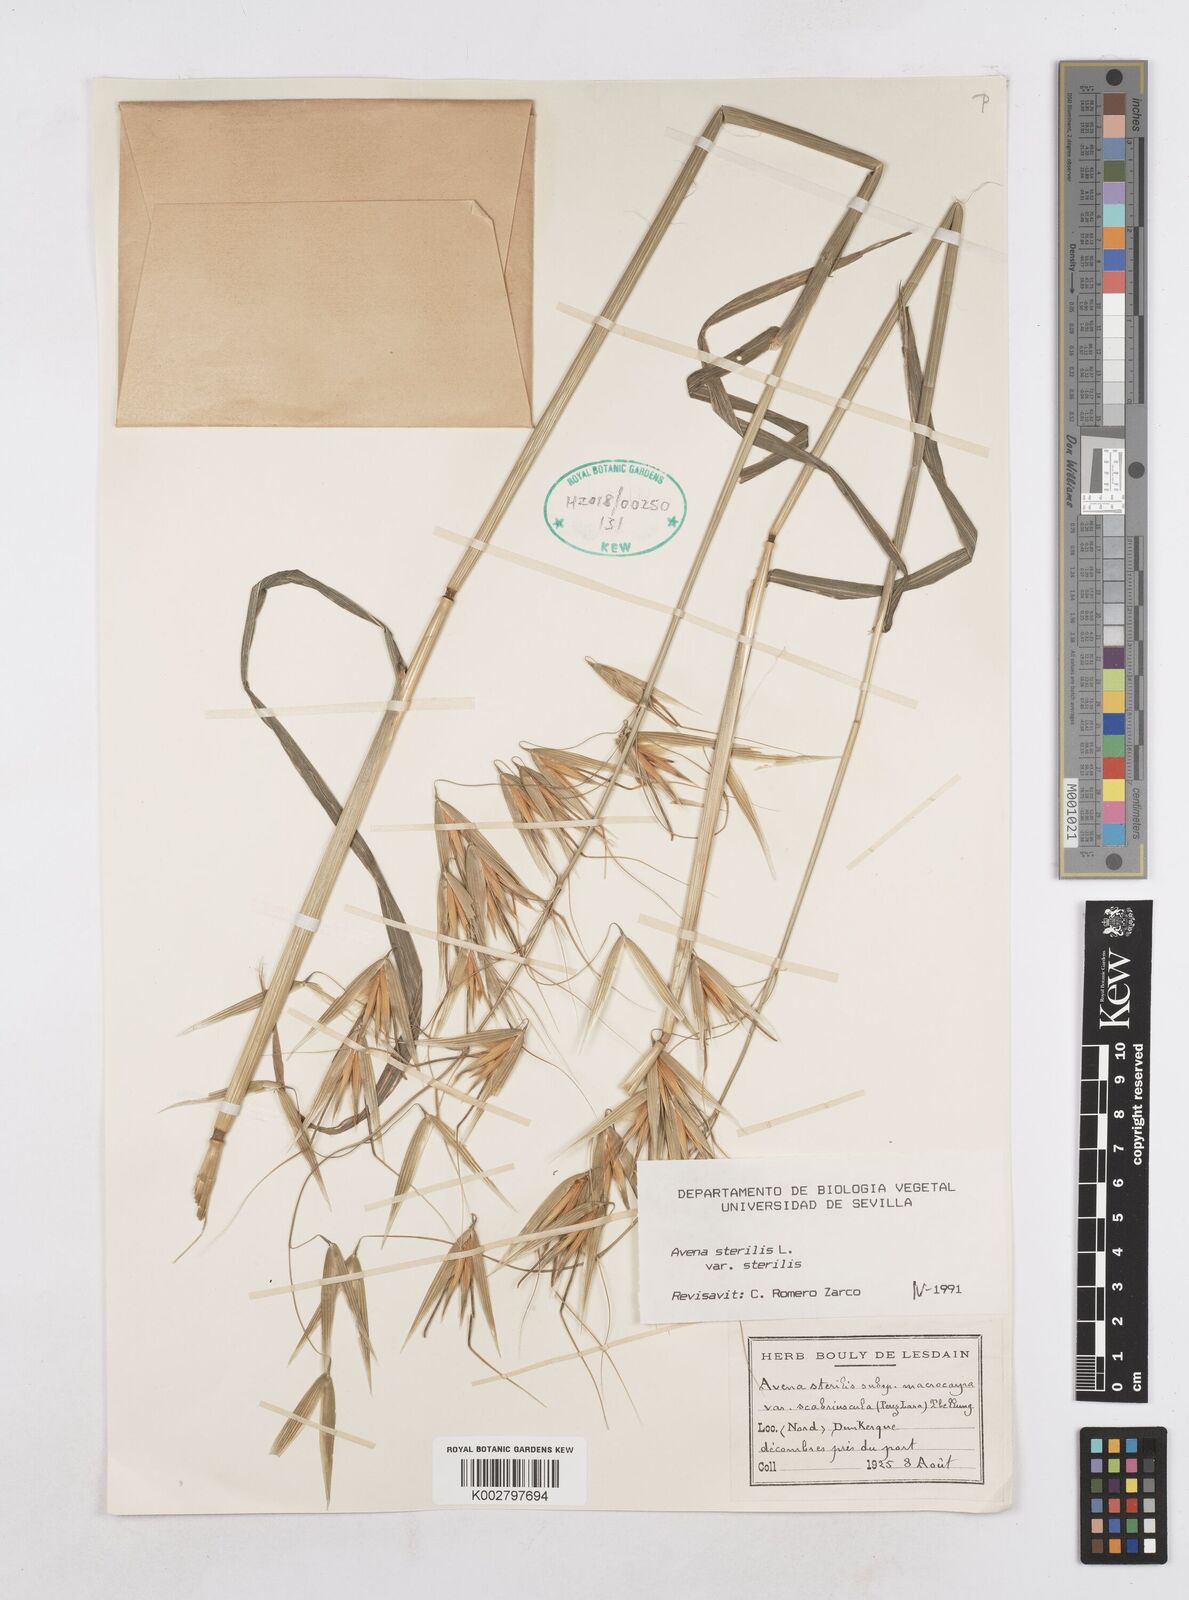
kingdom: Plantae
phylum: Tracheophyta
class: Liliopsida
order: Poales
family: Poaceae
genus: Avena
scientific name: Avena sterilis
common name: Animated oat
